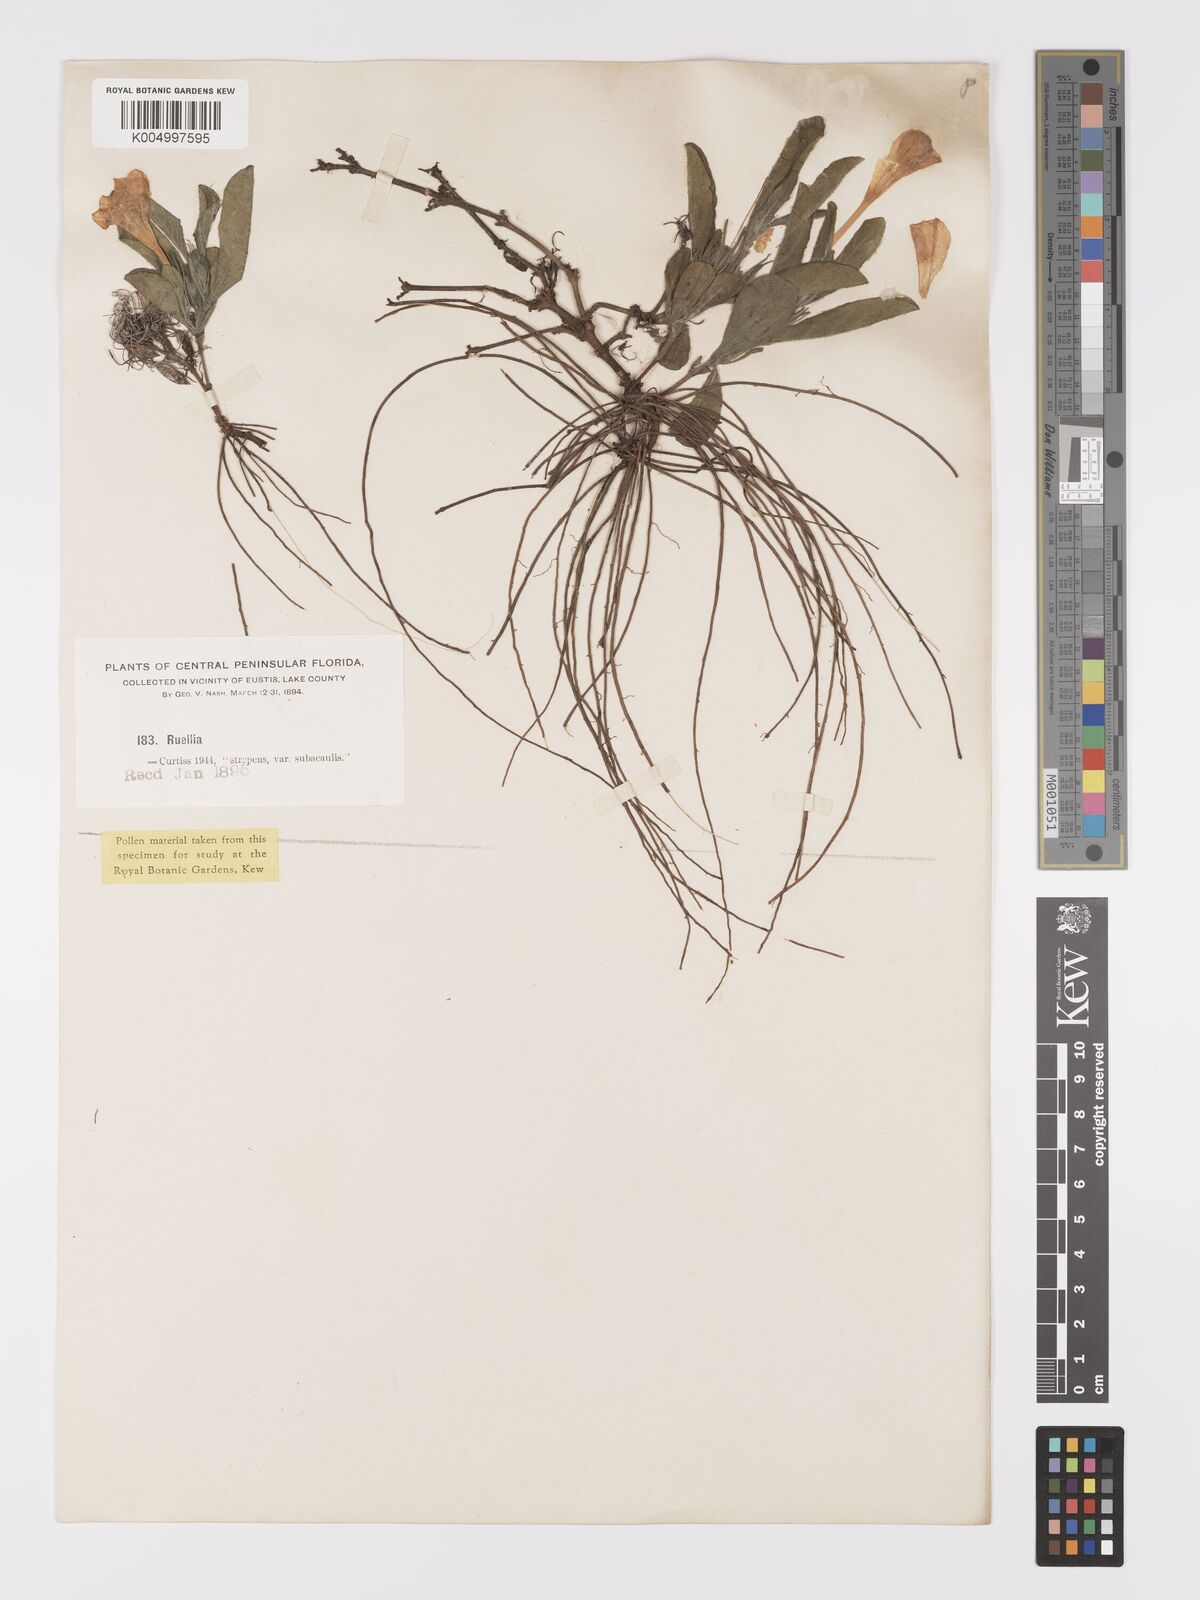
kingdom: Plantae
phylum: Tracheophyta
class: Magnoliopsida
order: Lamiales
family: Acanthaceae
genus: Ruellia
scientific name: Ruellia
